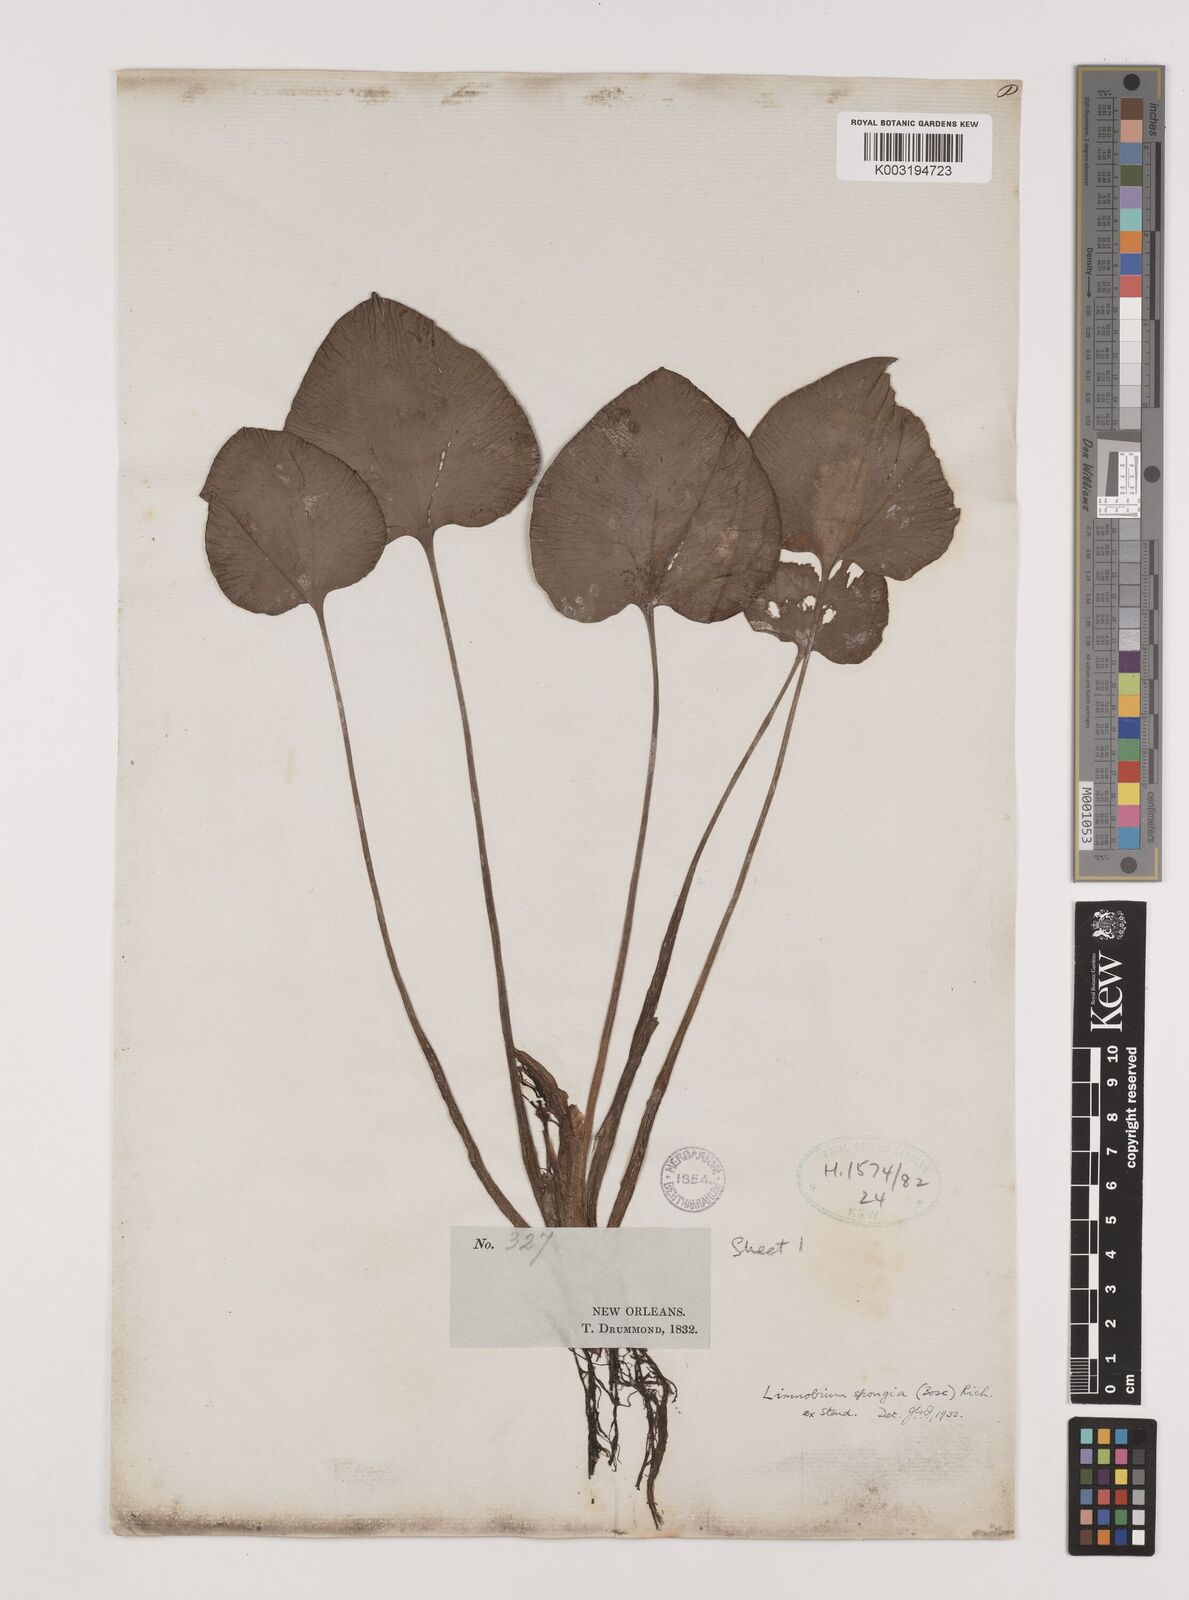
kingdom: Plantae
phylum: Tracheophyta
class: Liliopsida
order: Alismatales
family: Hydrocharitaceae
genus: Hydrocharis
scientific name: Hydrocharis spongia
